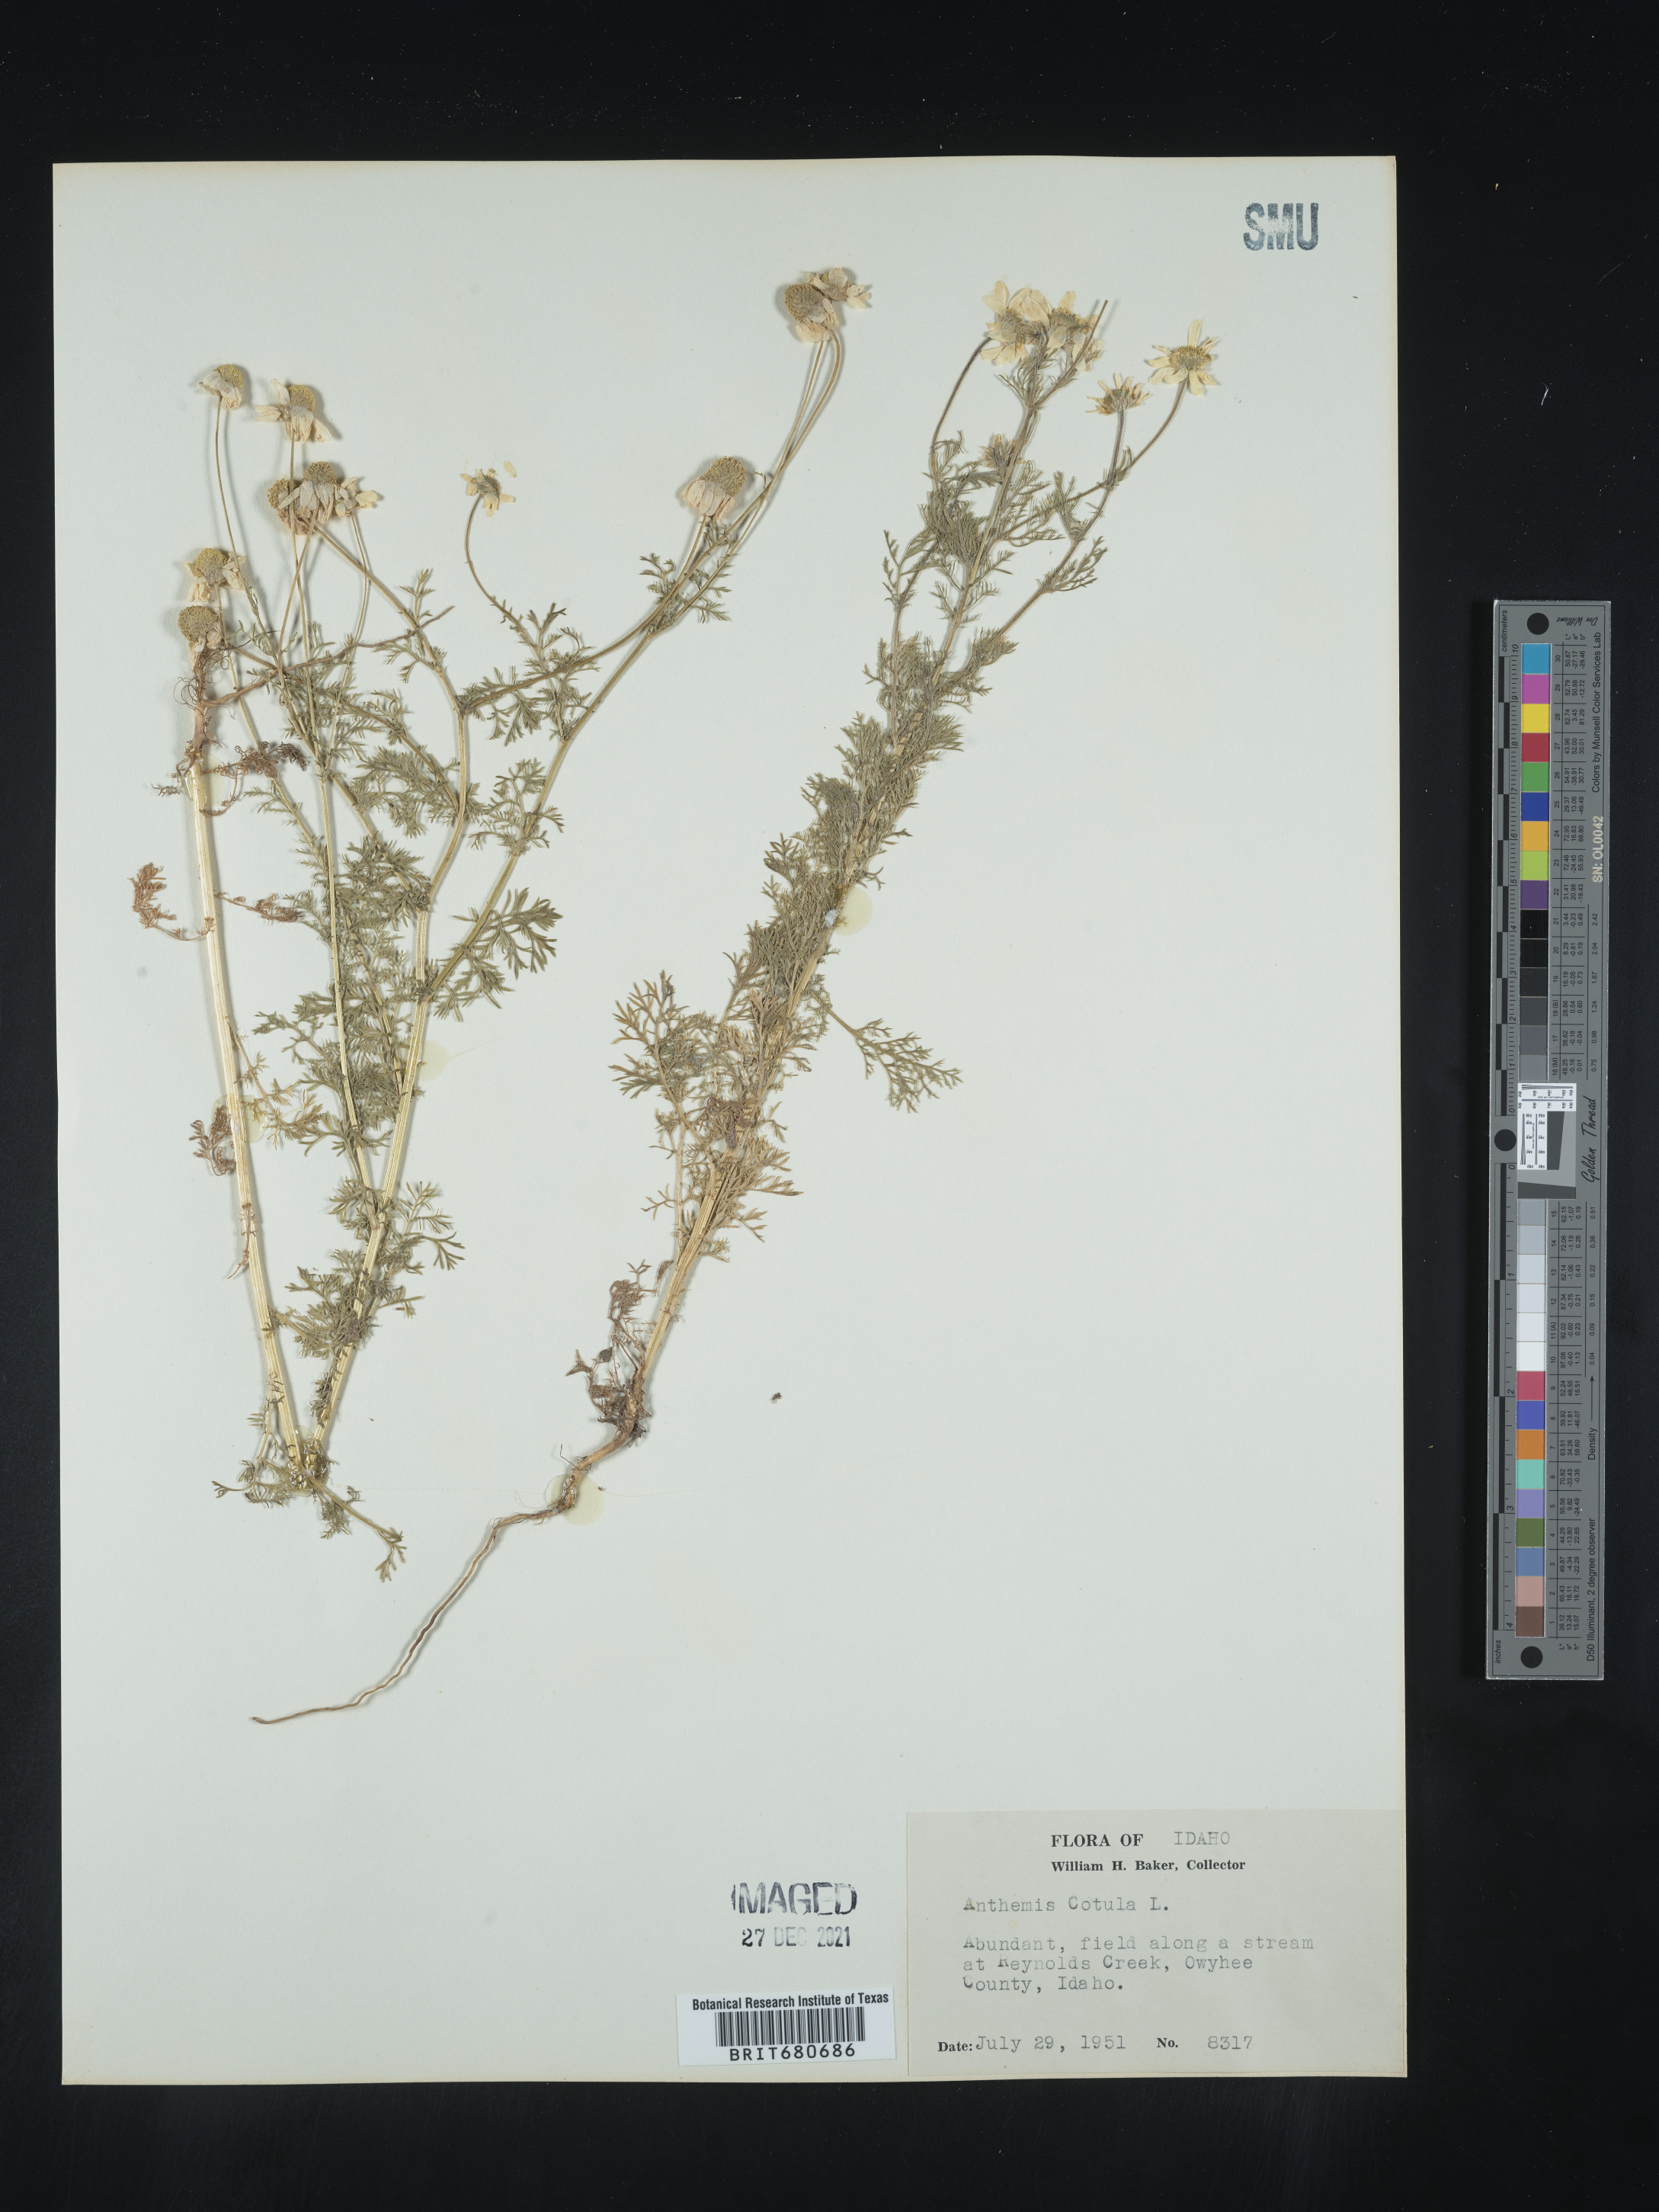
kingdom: Plantae
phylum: Tracheophyta
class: Magnoliopsida
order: Asterales
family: Asteraceae
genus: Anthemis
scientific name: Anthemis cotula
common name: Stinking chamomile
